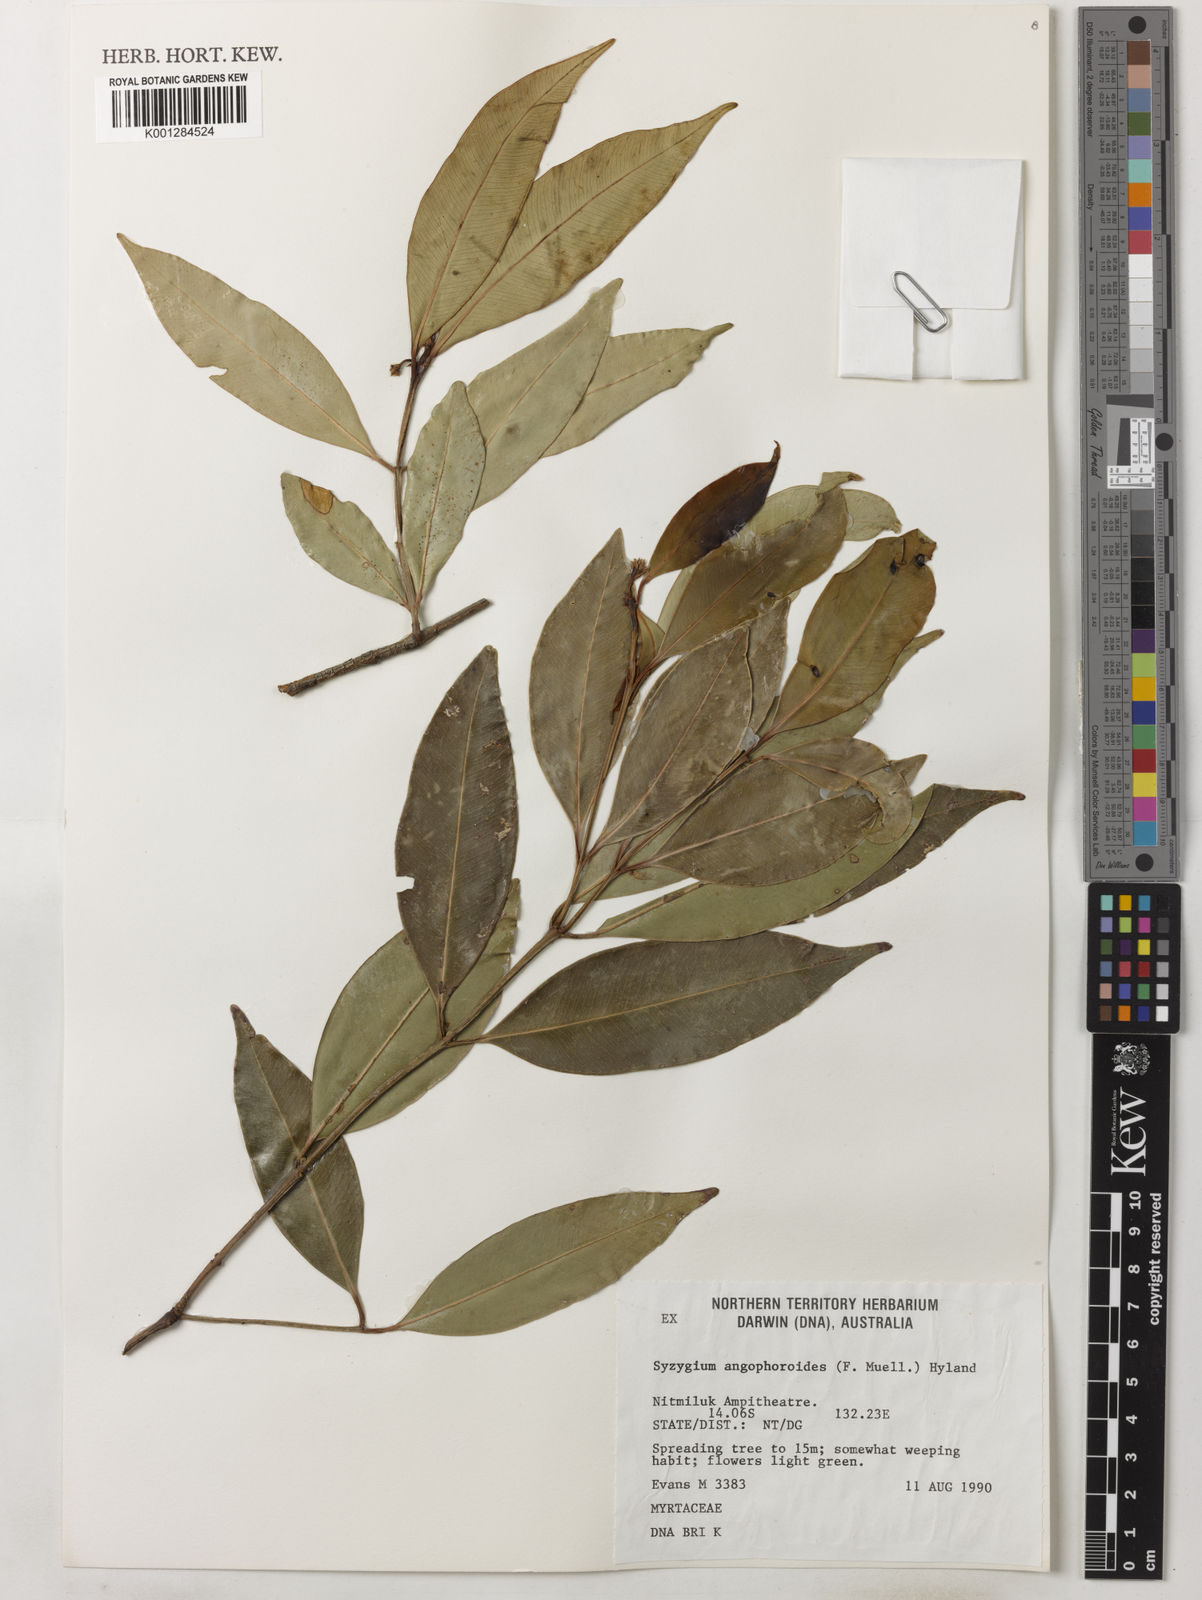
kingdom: Plantae
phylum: Tracheophyta
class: Magnoliopsida
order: Myrtales
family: Myrtaceae
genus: Syzygium
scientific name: Syzygium angophoroides
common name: Swamp satinash
